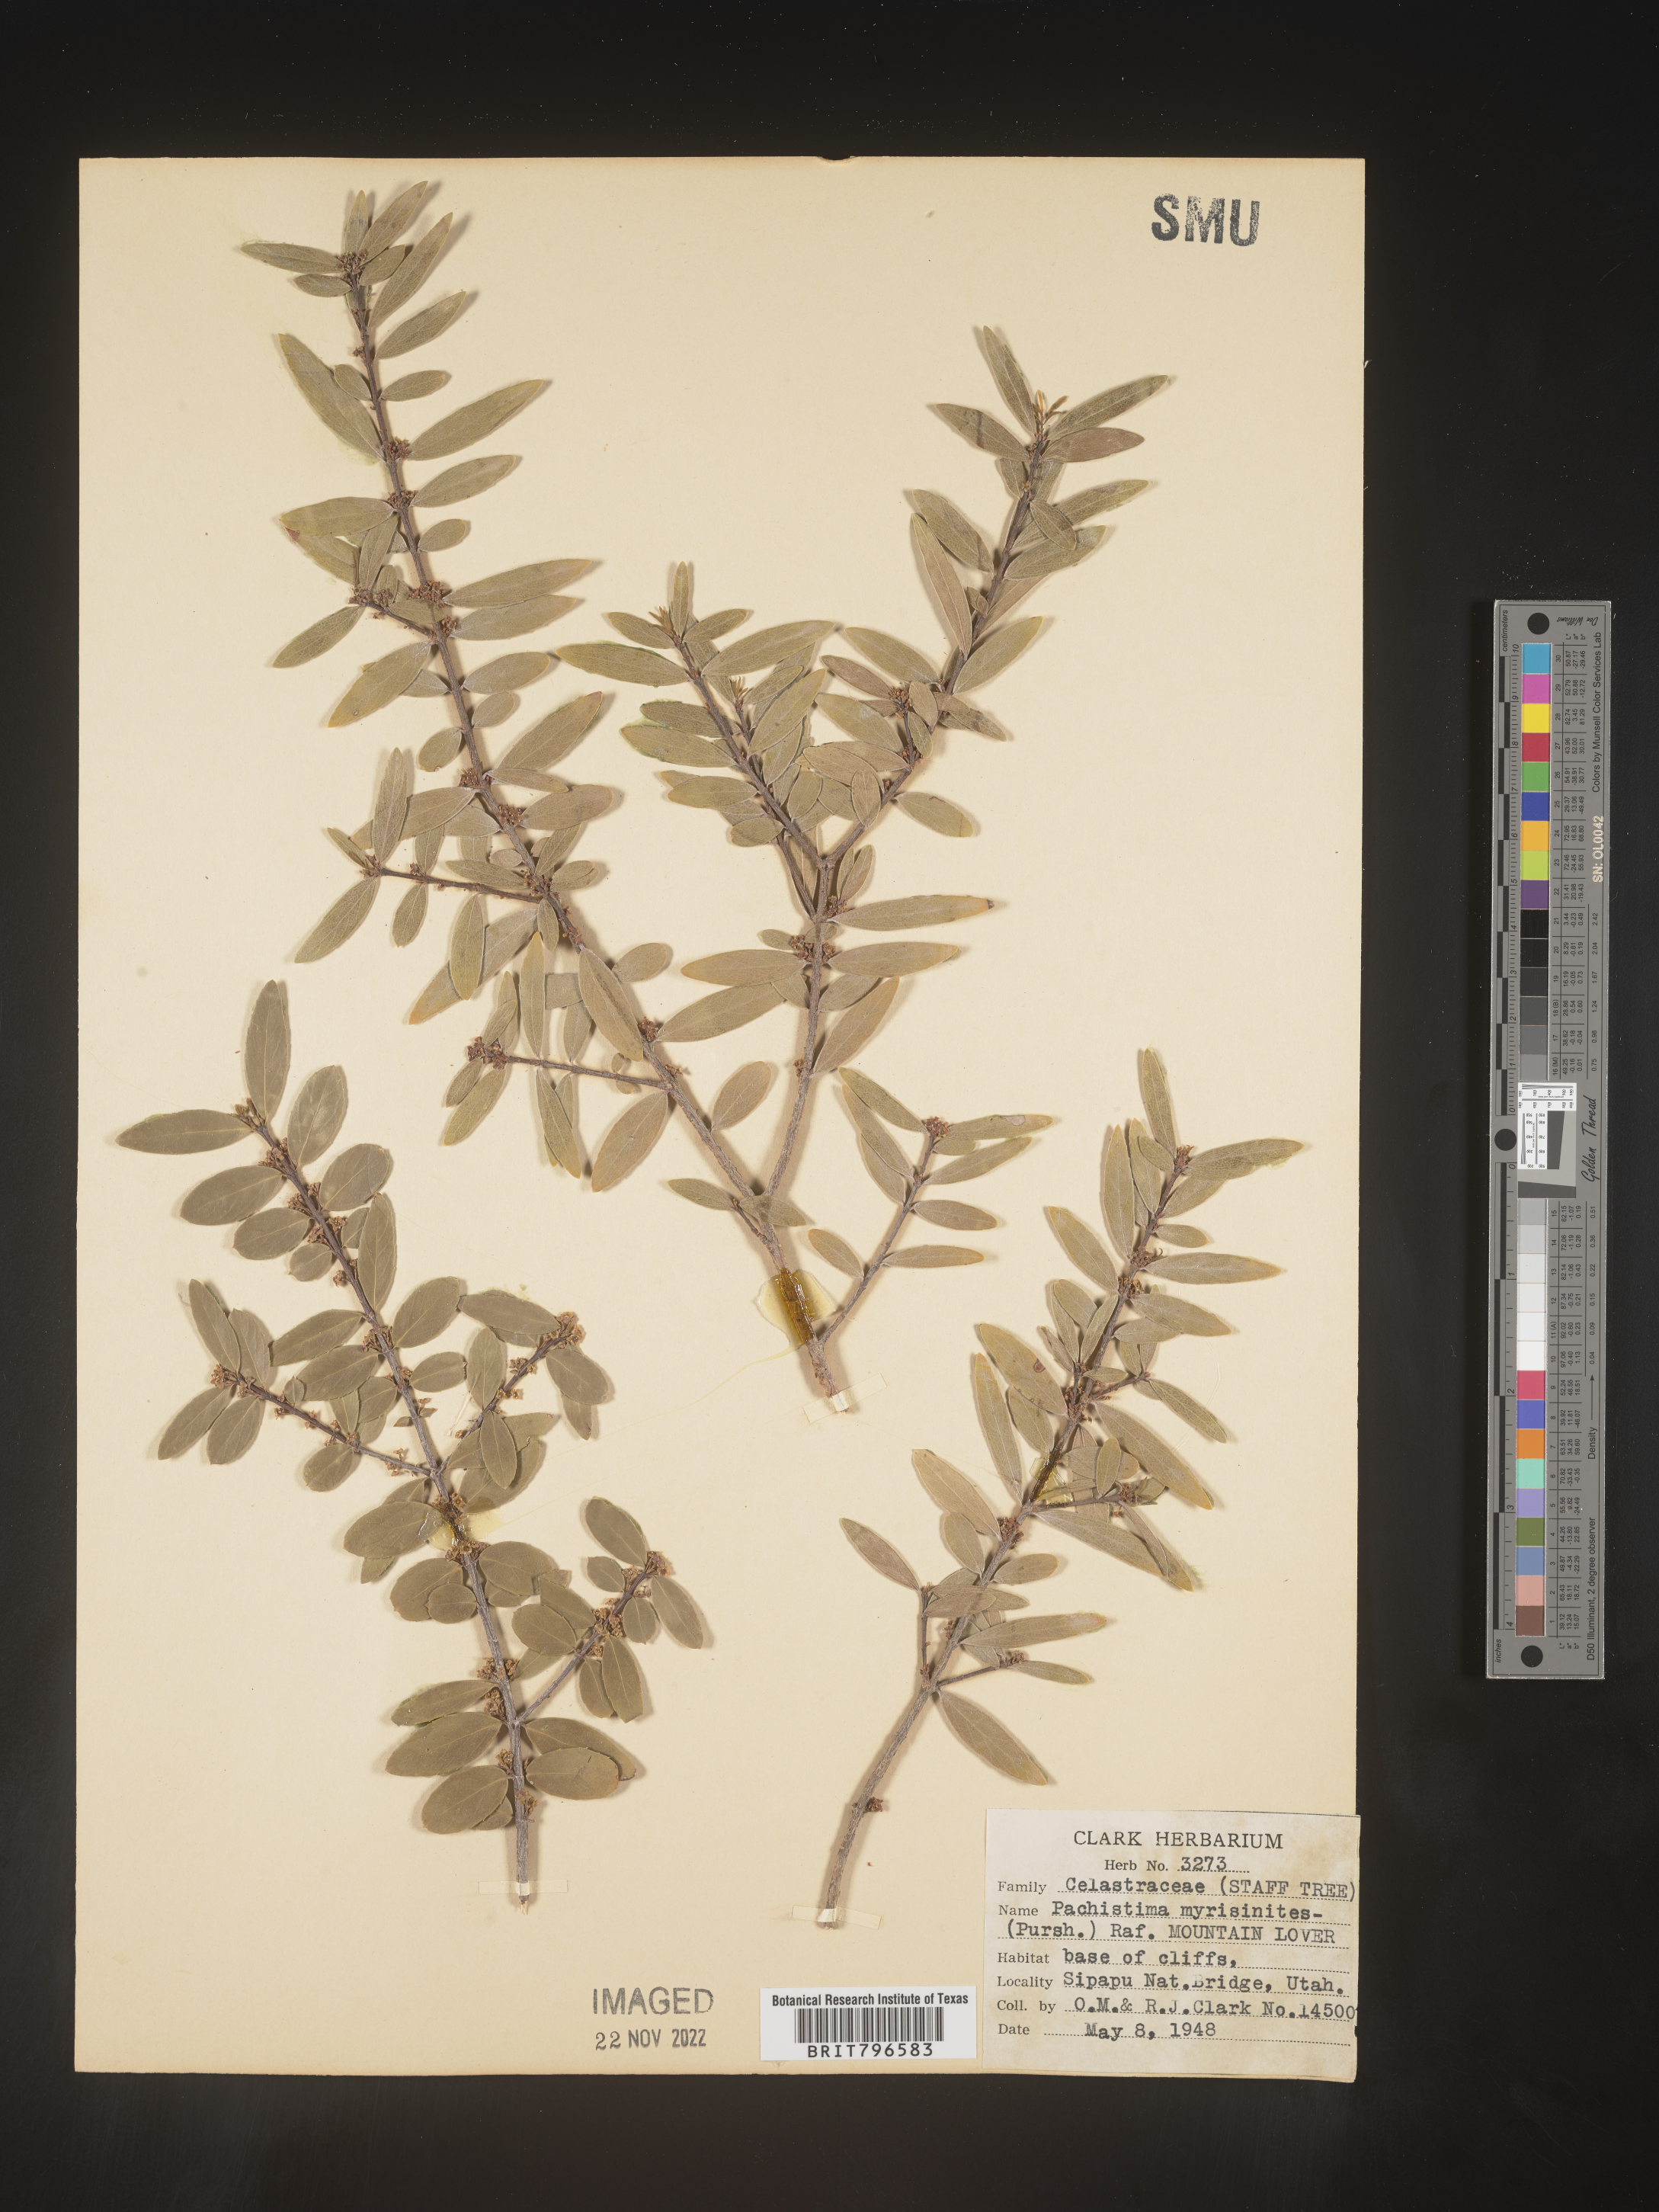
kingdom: Plantae
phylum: Tracheophyta
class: Magnoliopsida
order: Celastrales
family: Celastraceae
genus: Paxistima
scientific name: Paxistima myrsinites
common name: Mountain-lover
